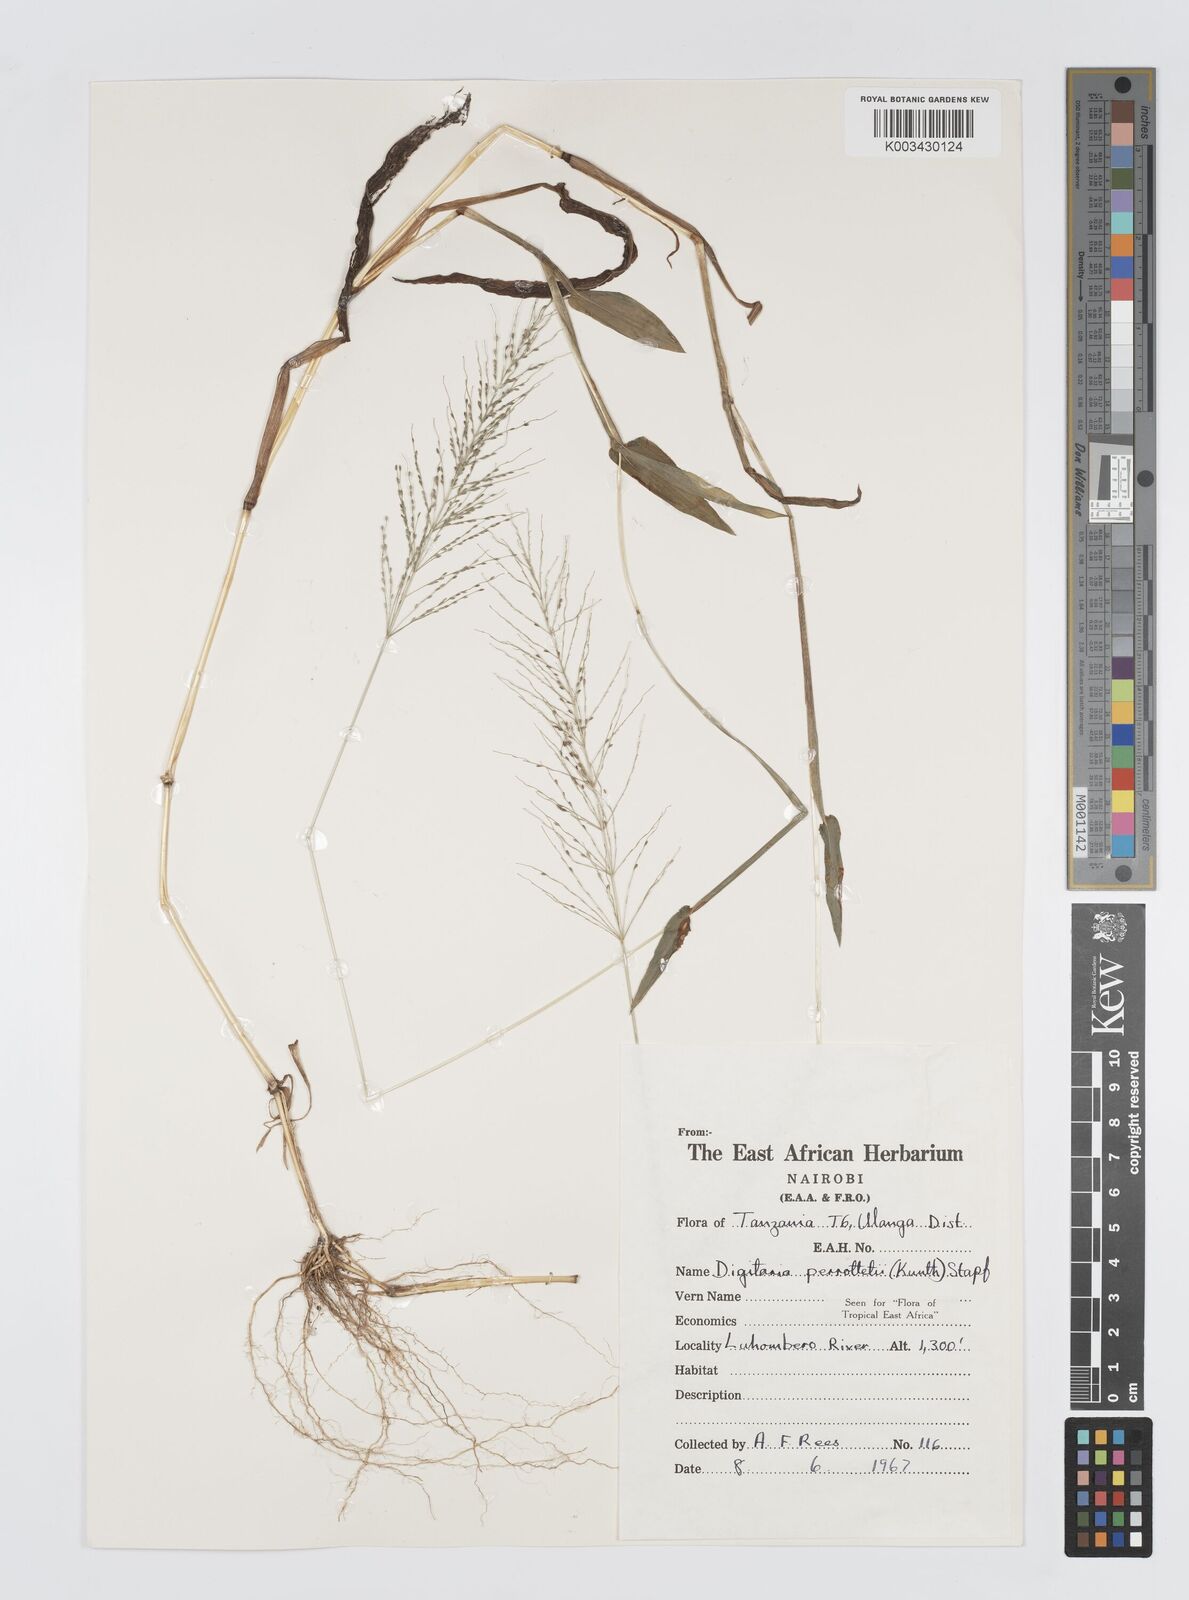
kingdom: Plantae
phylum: Tracheophyta
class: Liliopsida
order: Poales
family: Poaceae
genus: Digitaria
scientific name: Digitaria perrottetii
